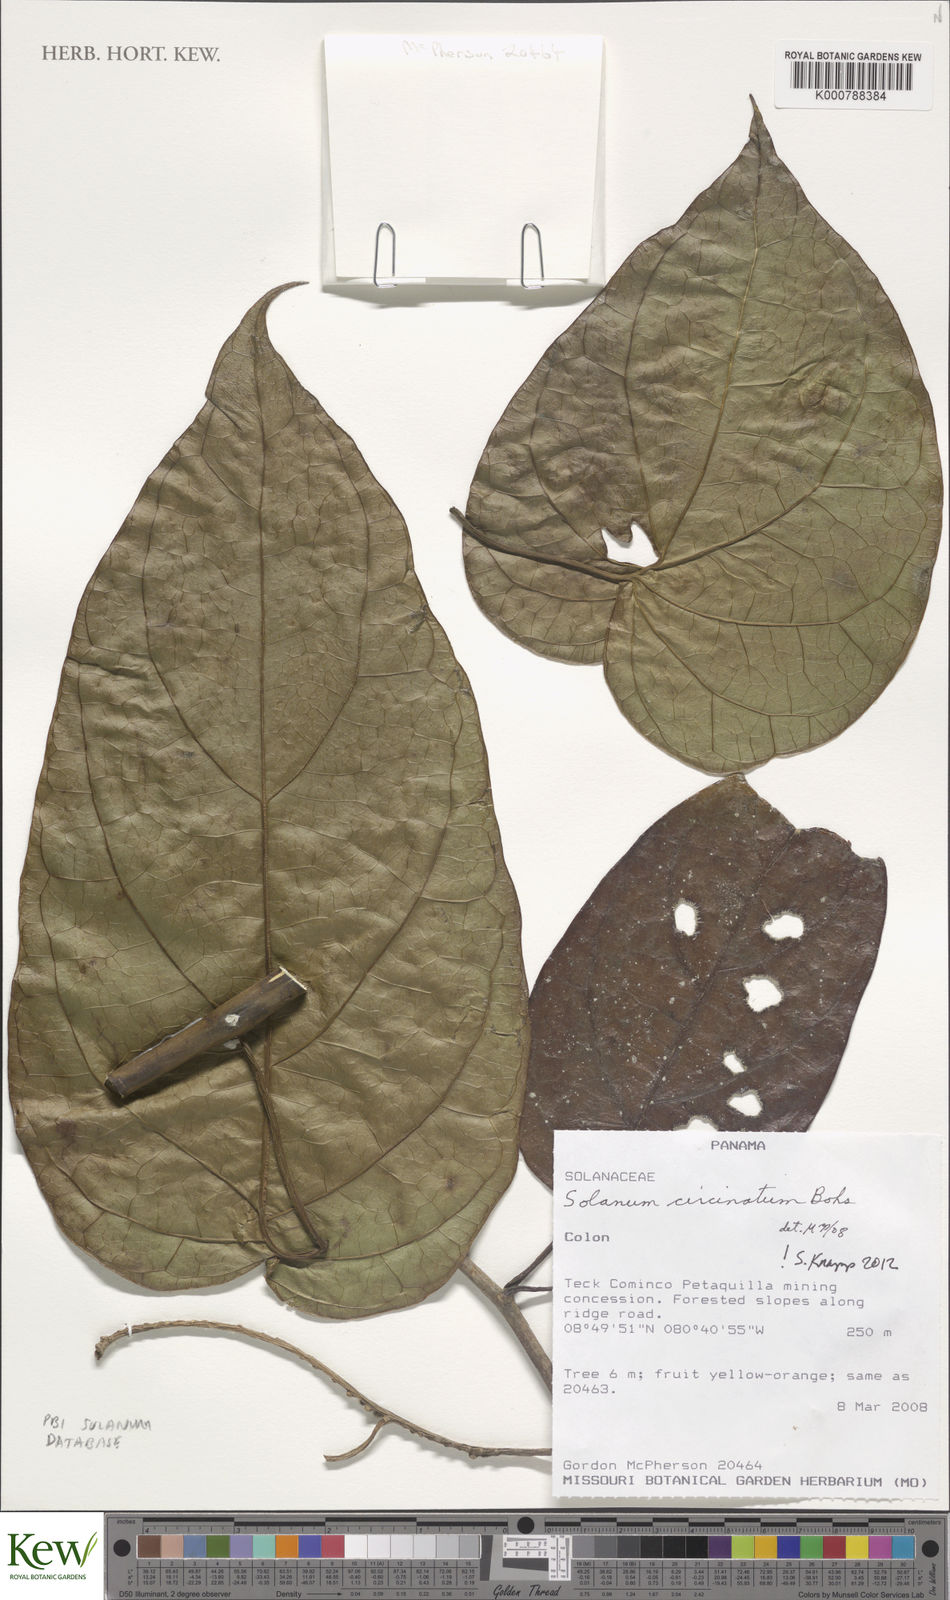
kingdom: Plantae
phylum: Tracheophyta
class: Magnoliopsida
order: Solanales
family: Solanaceae
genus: Solanum
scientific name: Solanum splendens
